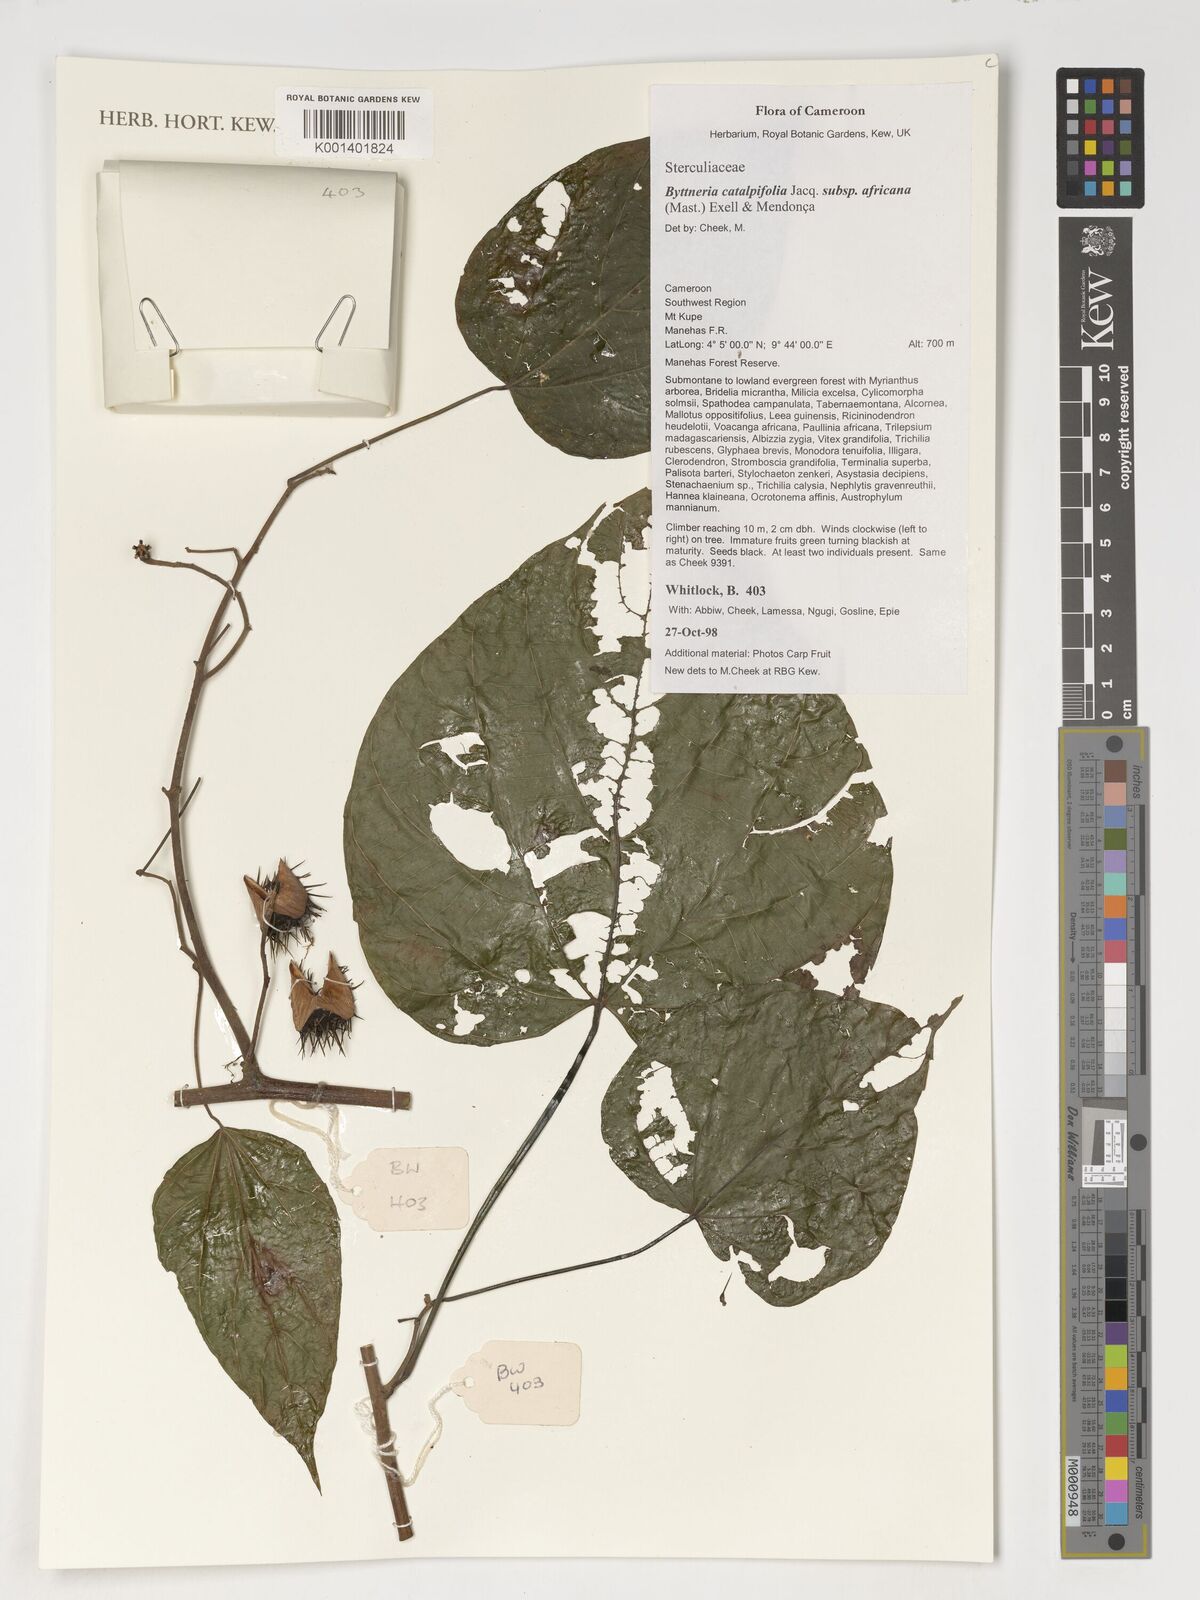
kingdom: Plantae
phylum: Tracheophyta
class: Magnoliopsida
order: Malvales
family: Malvaceae
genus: Byttneria
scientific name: Byttneria catalpifolia
